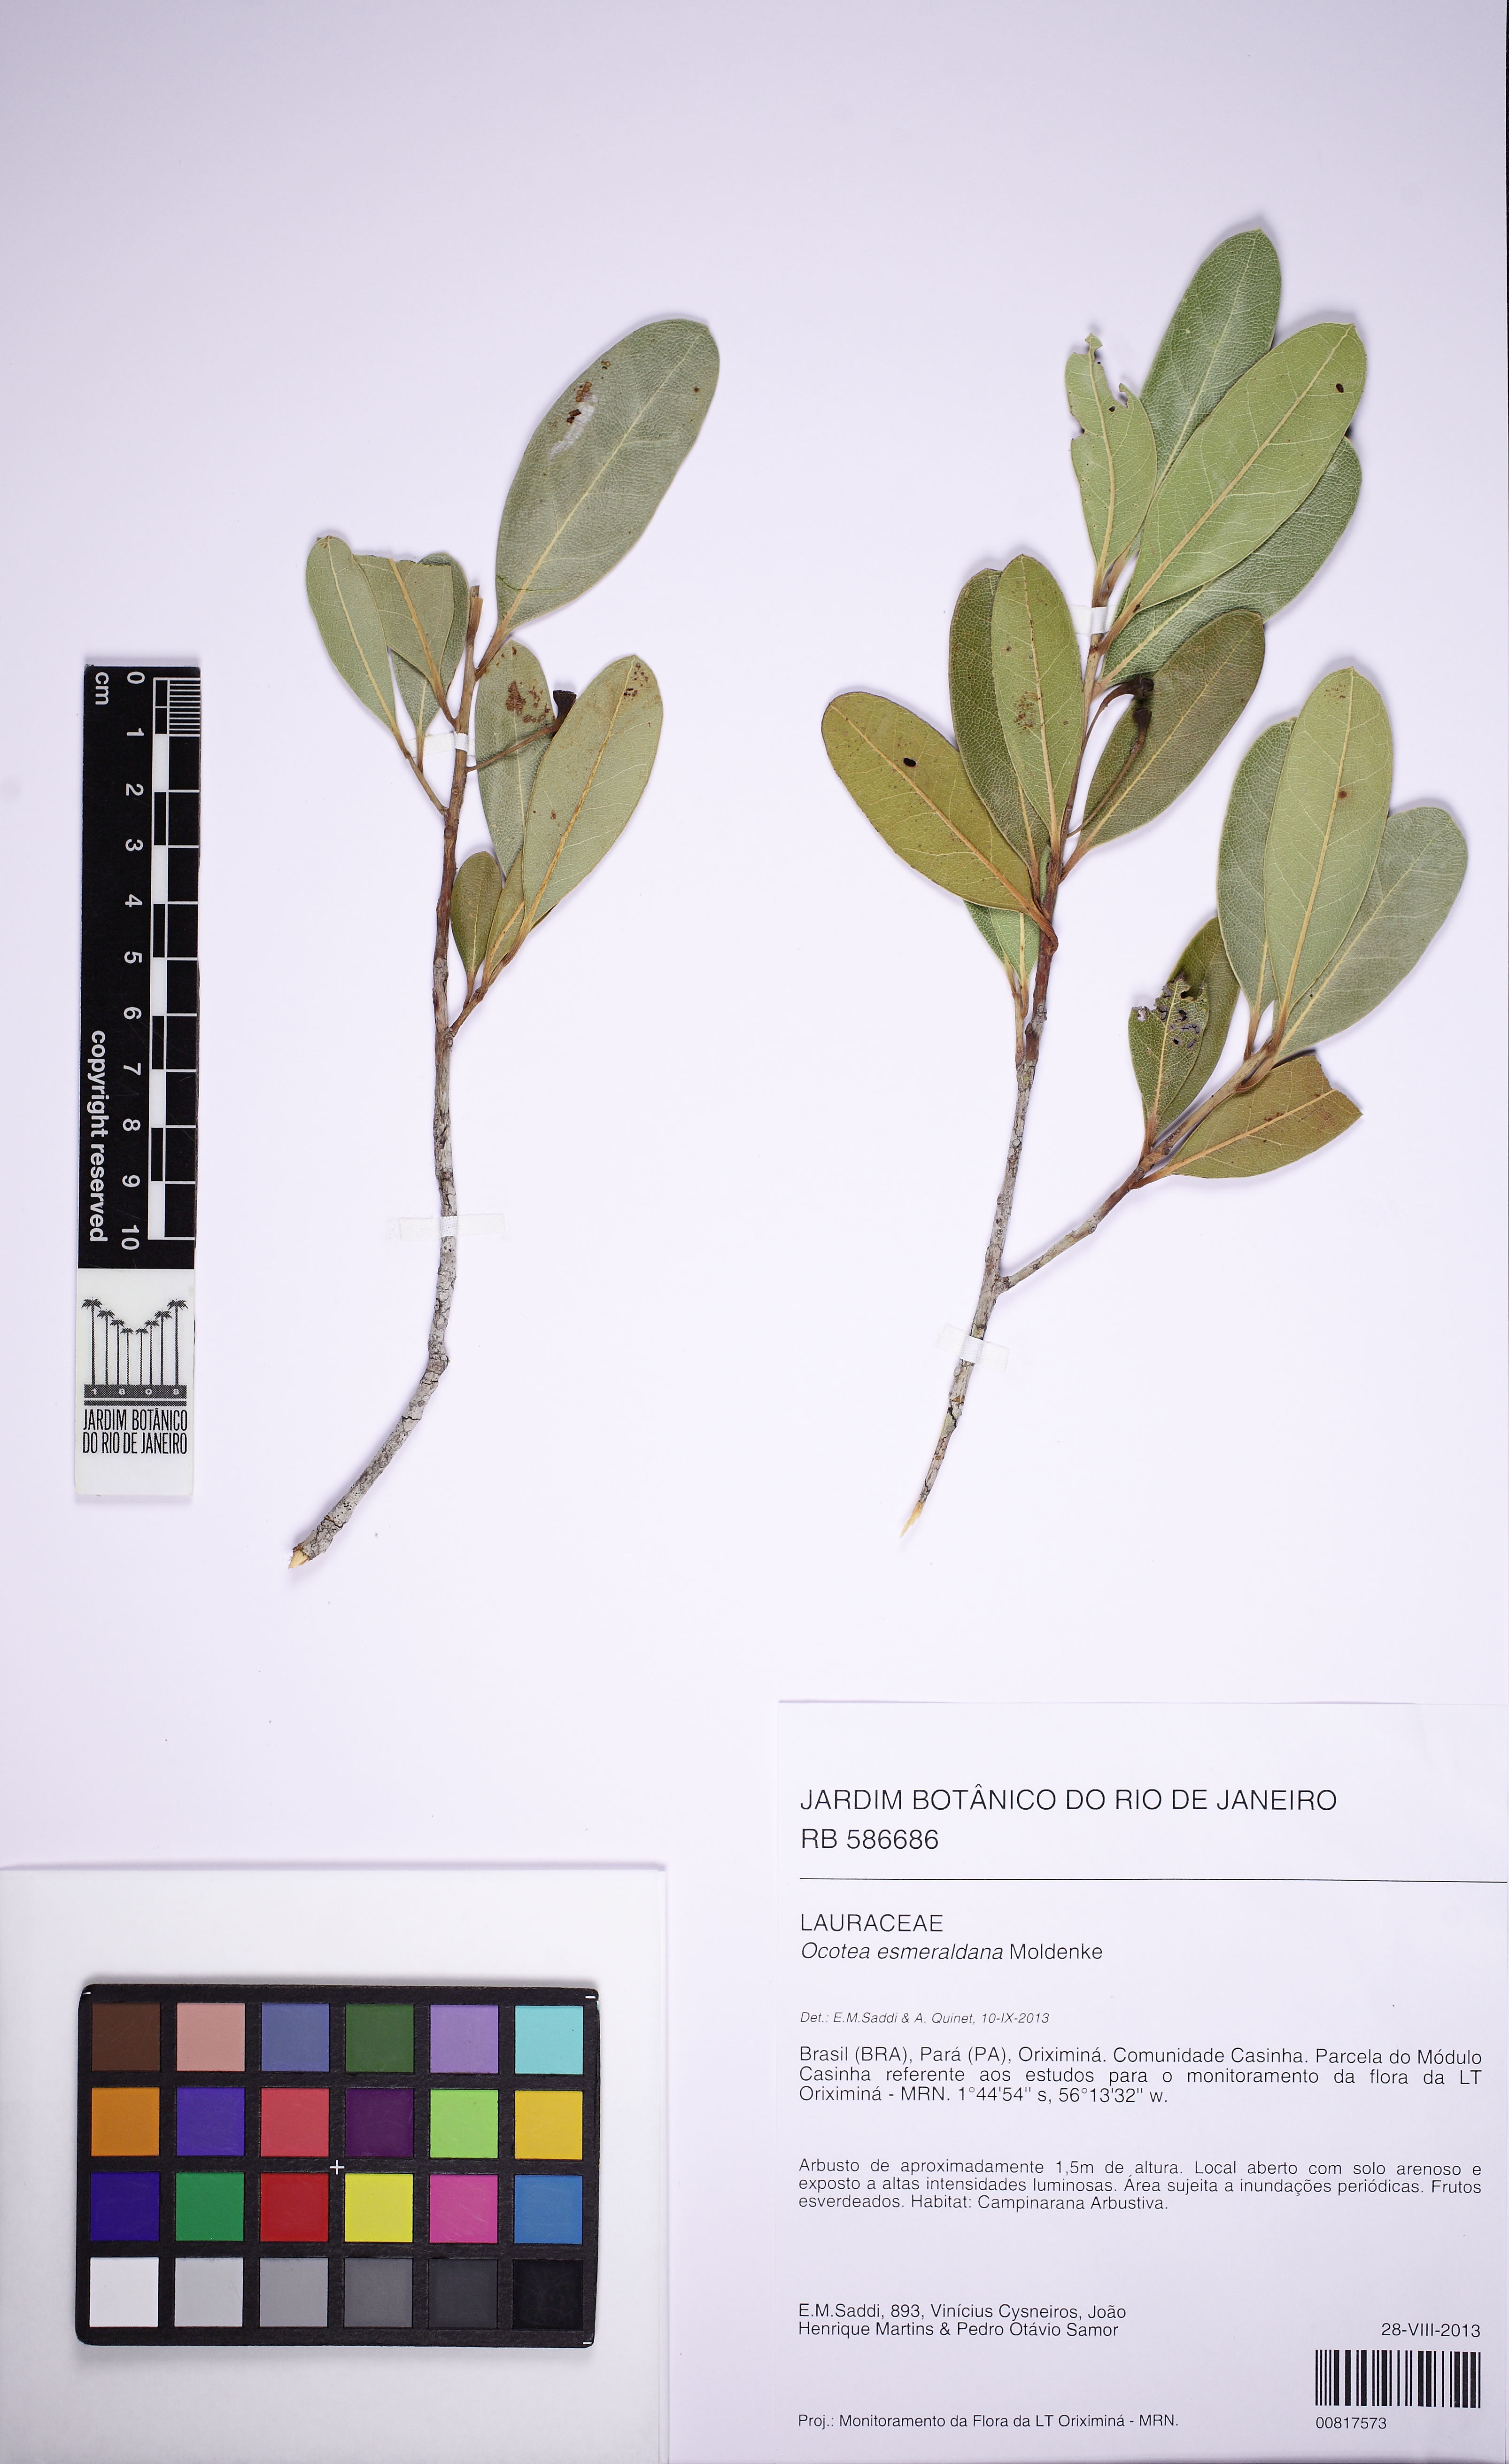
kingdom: Plantae
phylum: Tracheophyta
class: Magnoliopsida
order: Laurales
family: Lauraceae
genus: Ocotea
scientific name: Ocotea esmeraldana
